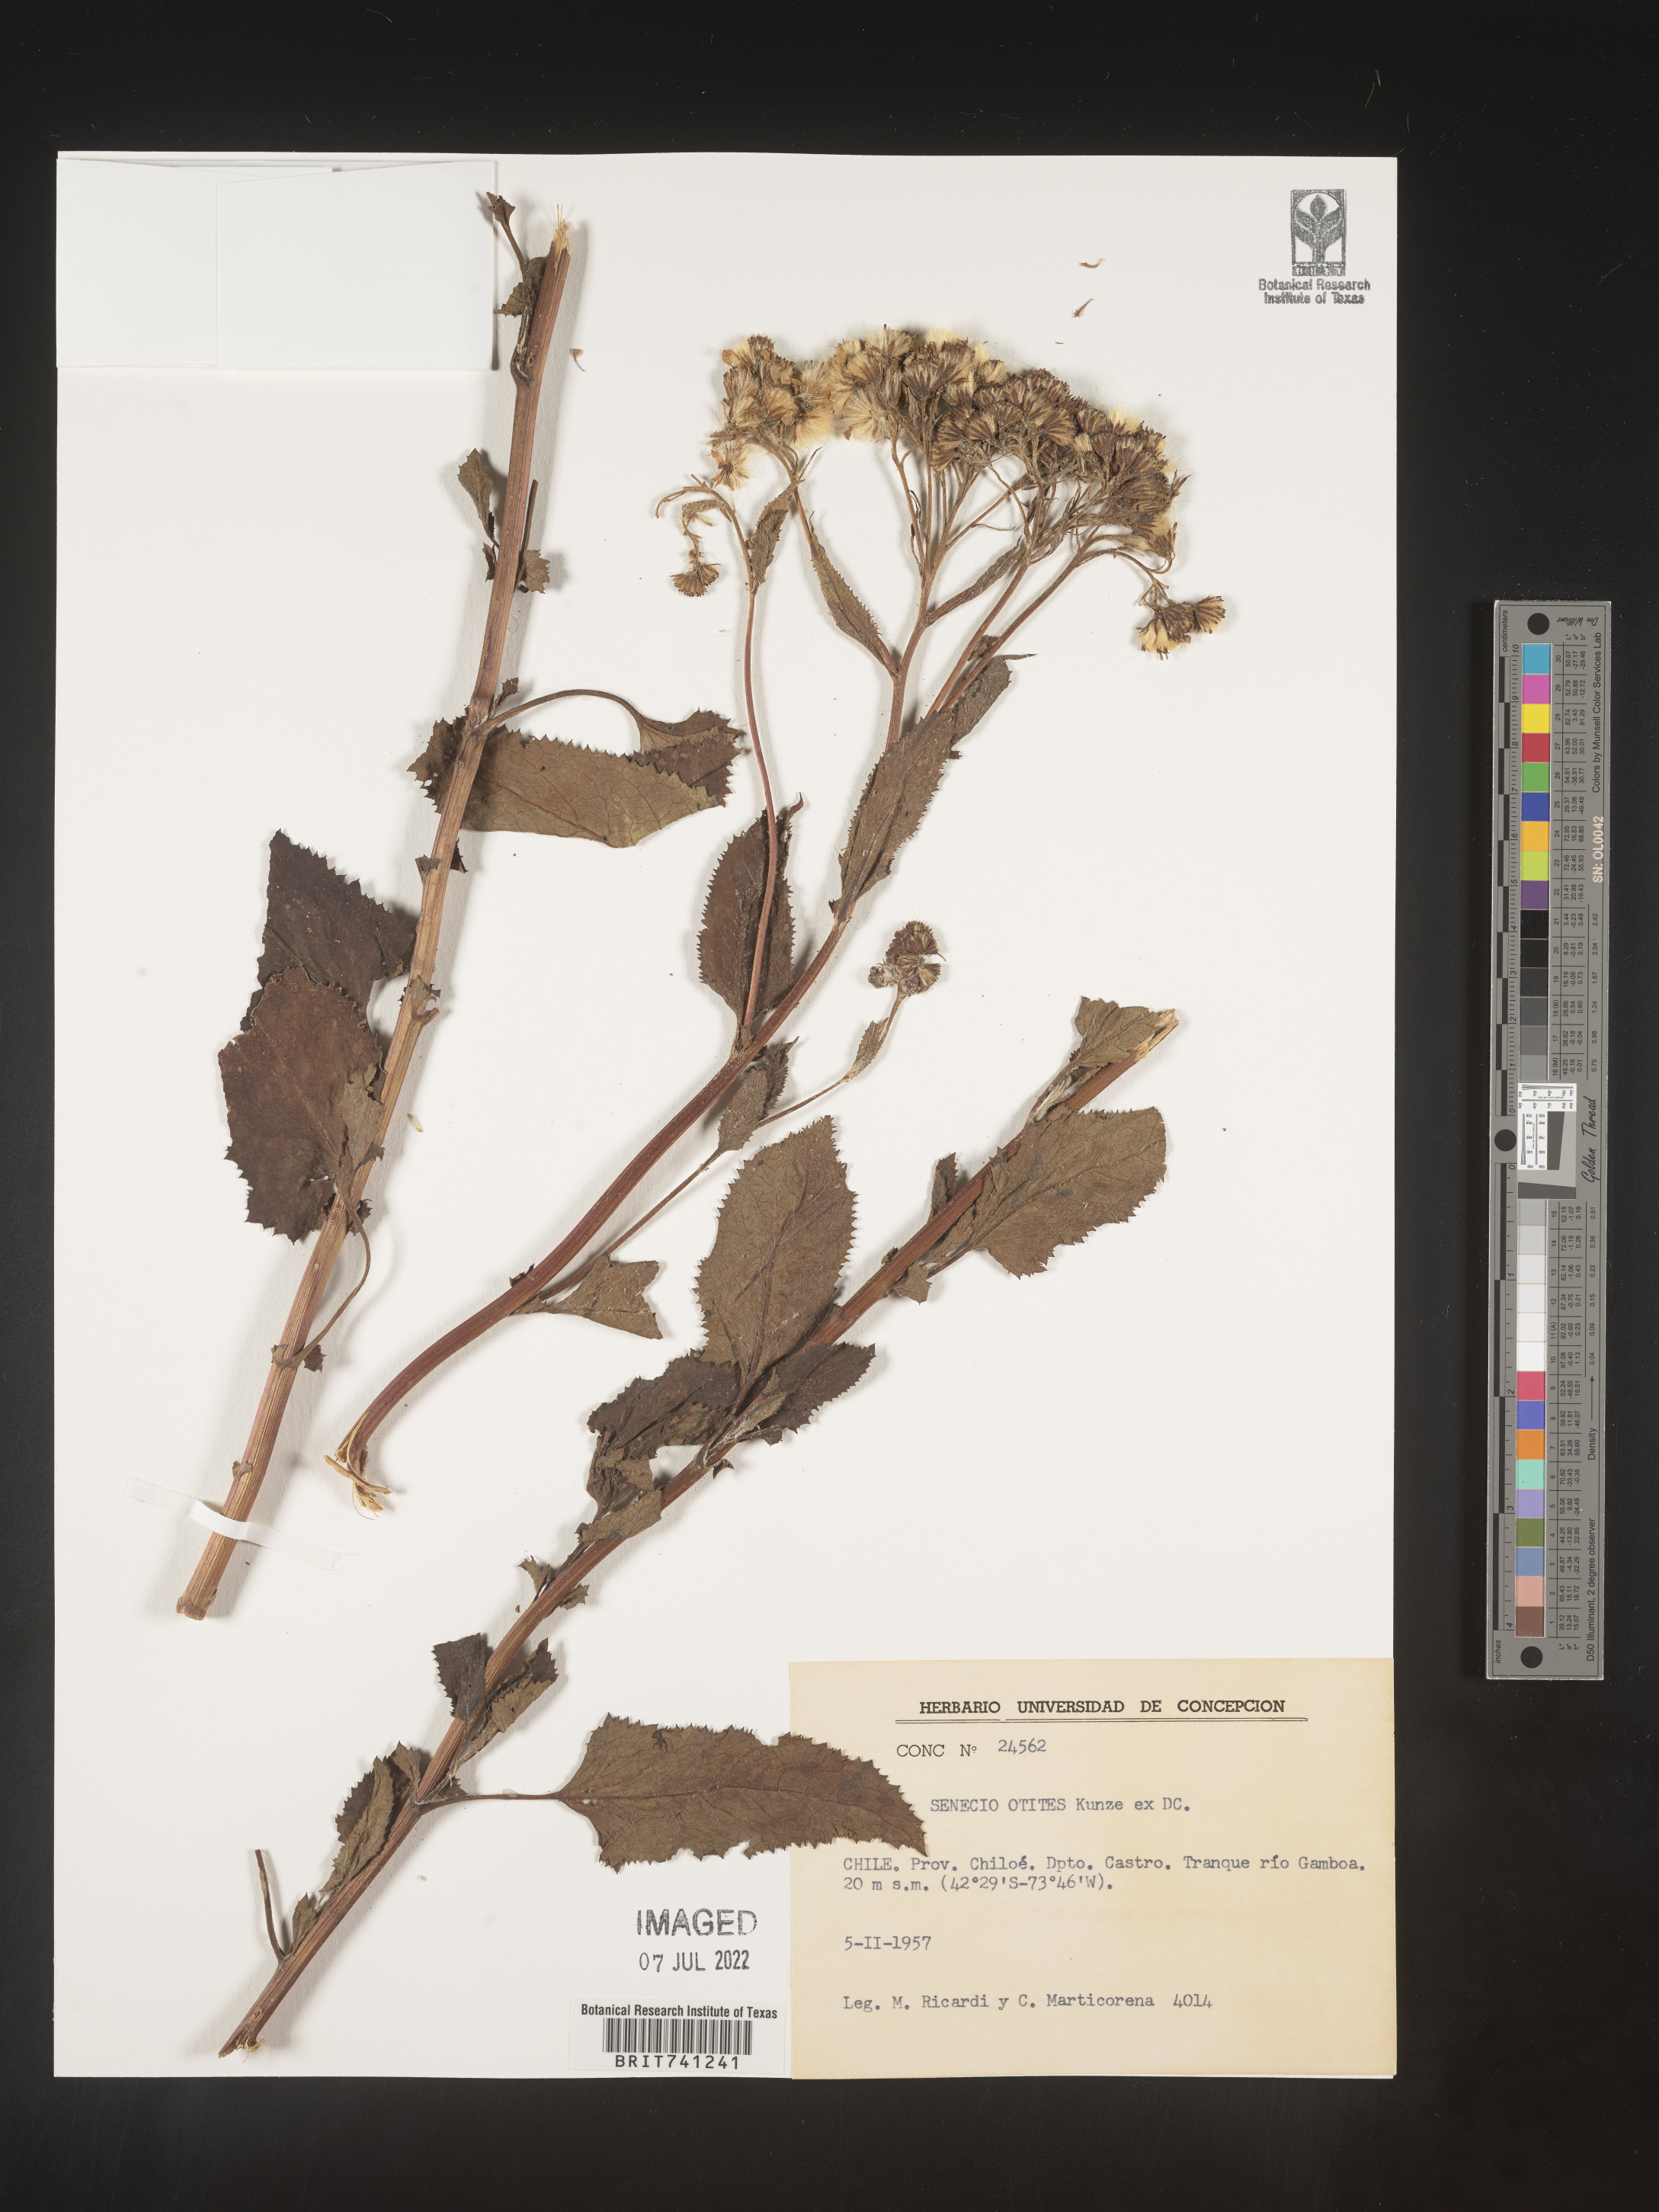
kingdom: Plantae
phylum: Tracheophyta
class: Magnoliopsida
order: Asterales
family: Asteraceae
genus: Senecio
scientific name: Senecio
